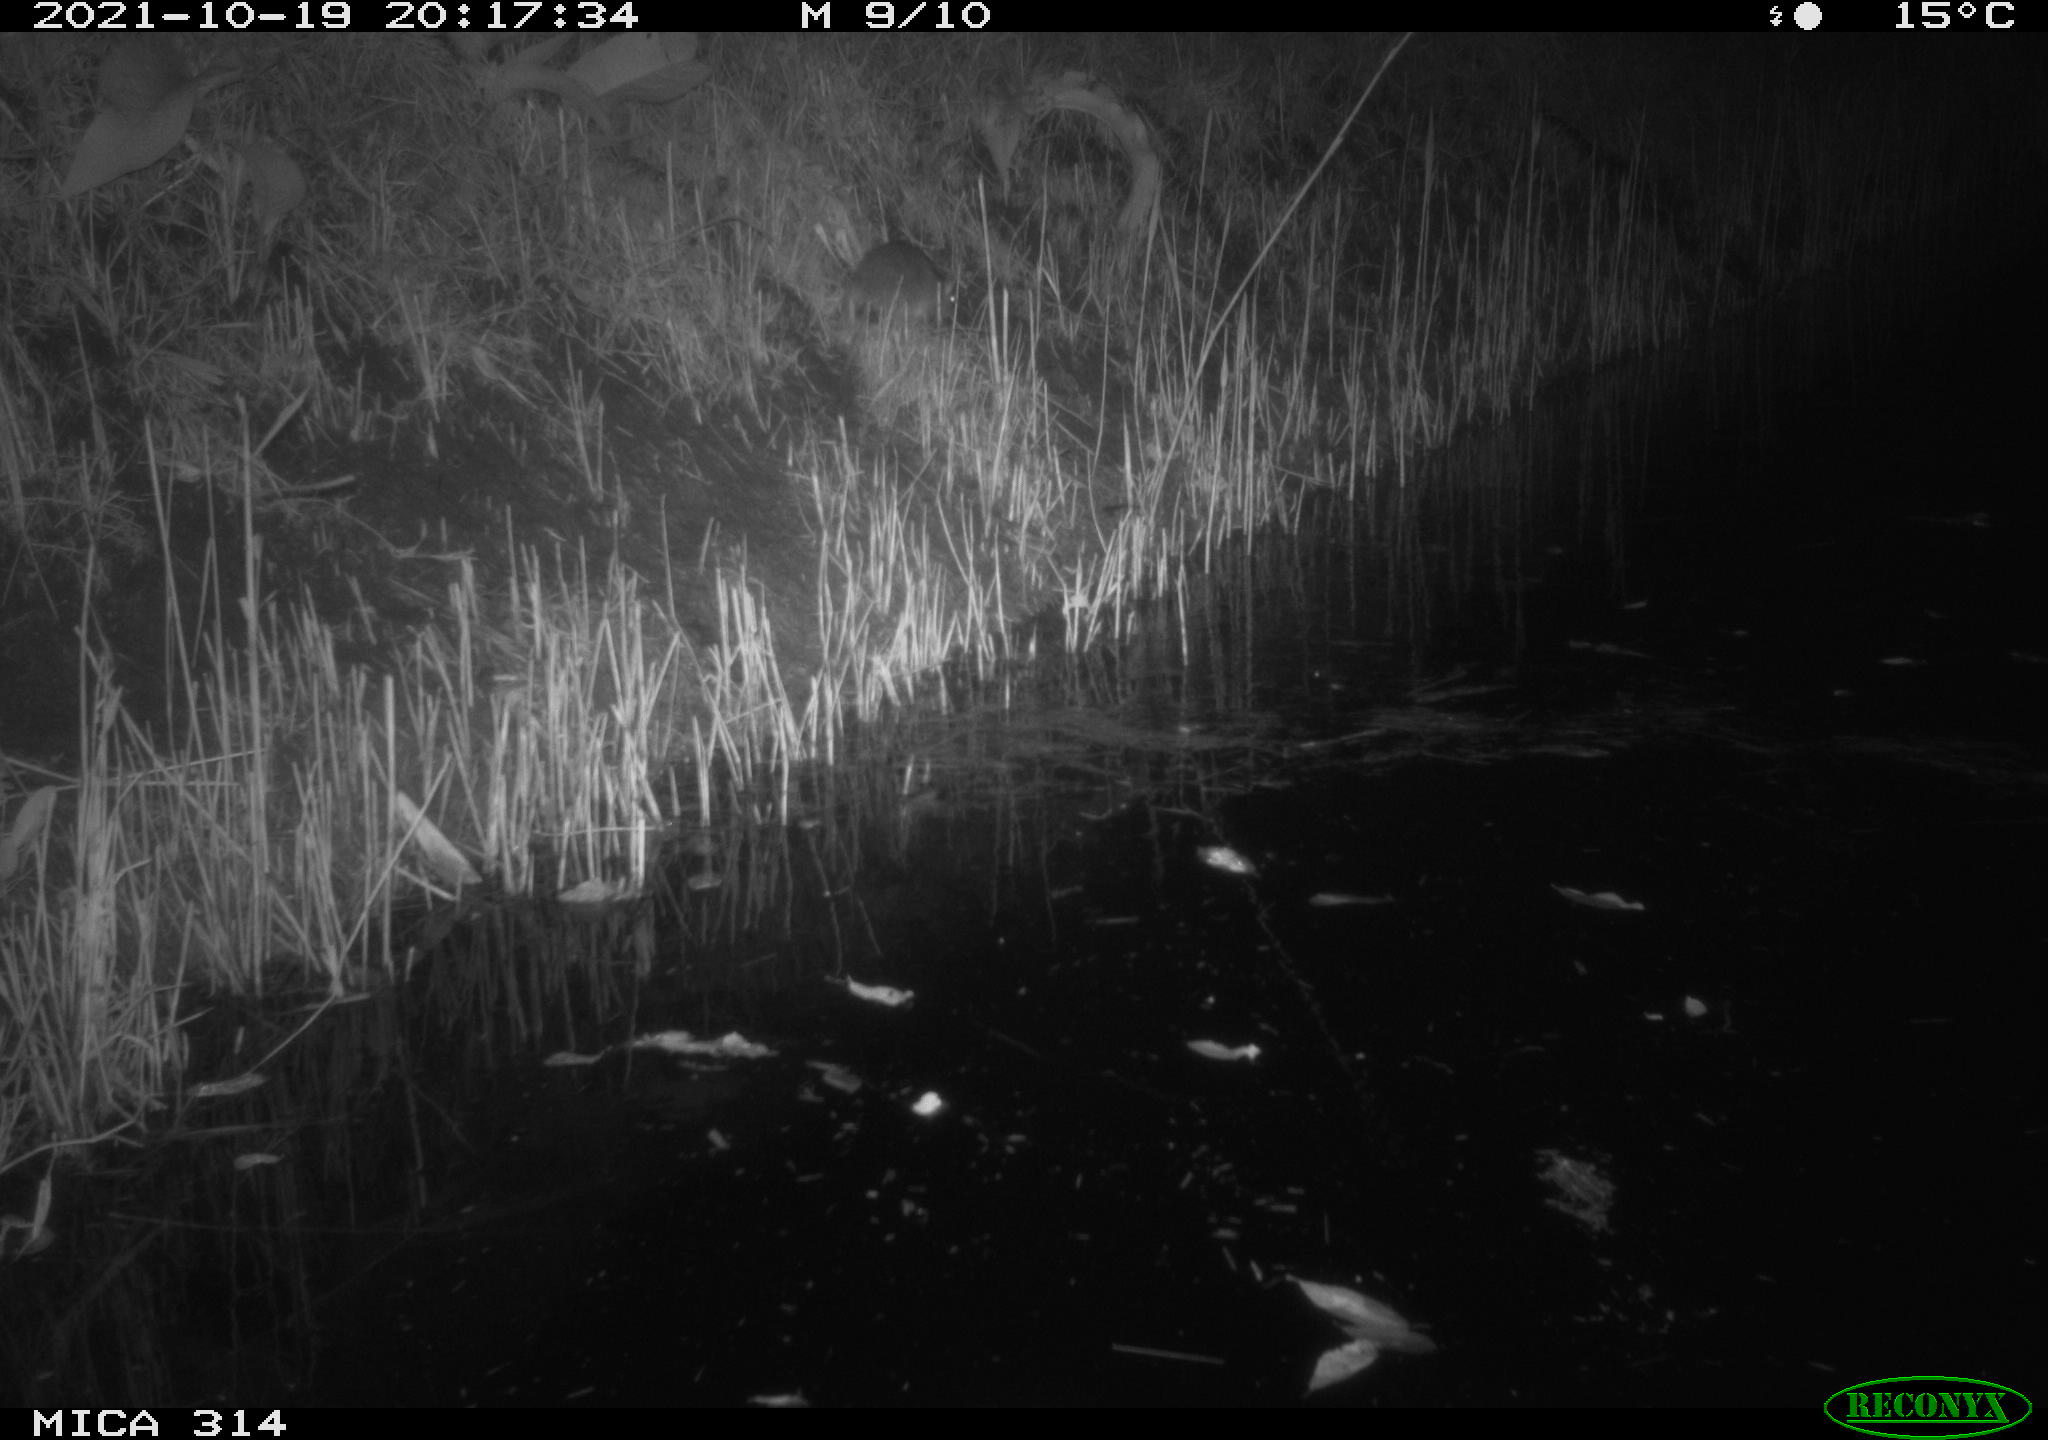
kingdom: Animalia
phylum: Chordata
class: Mammalia
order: Rodentia
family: Muridae
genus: Rattus
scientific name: Rattus norvegicus
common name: Brown rat
